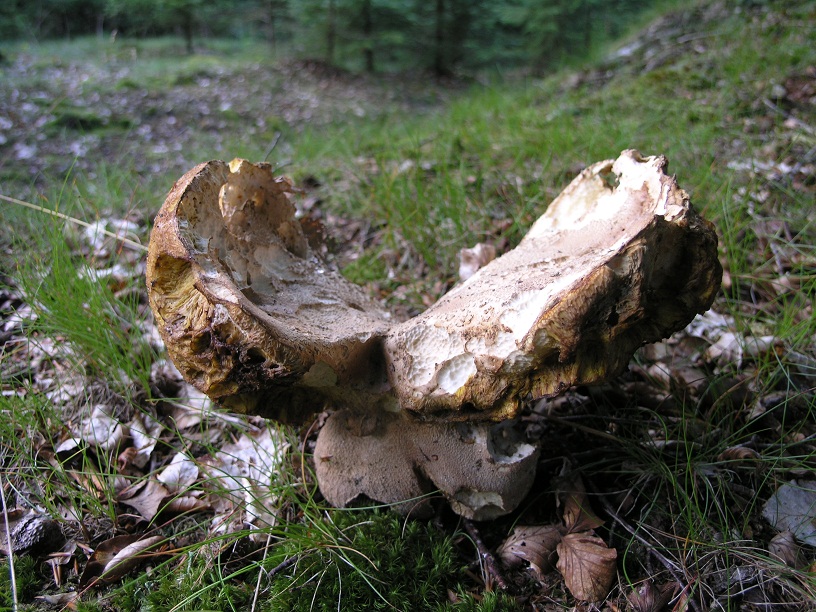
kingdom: Fungi
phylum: Basidiomycota
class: Agaricomycetes
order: Boletales
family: Boletaceae
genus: Boletus
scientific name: Boletus reticulatus
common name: sommer-rørhat
